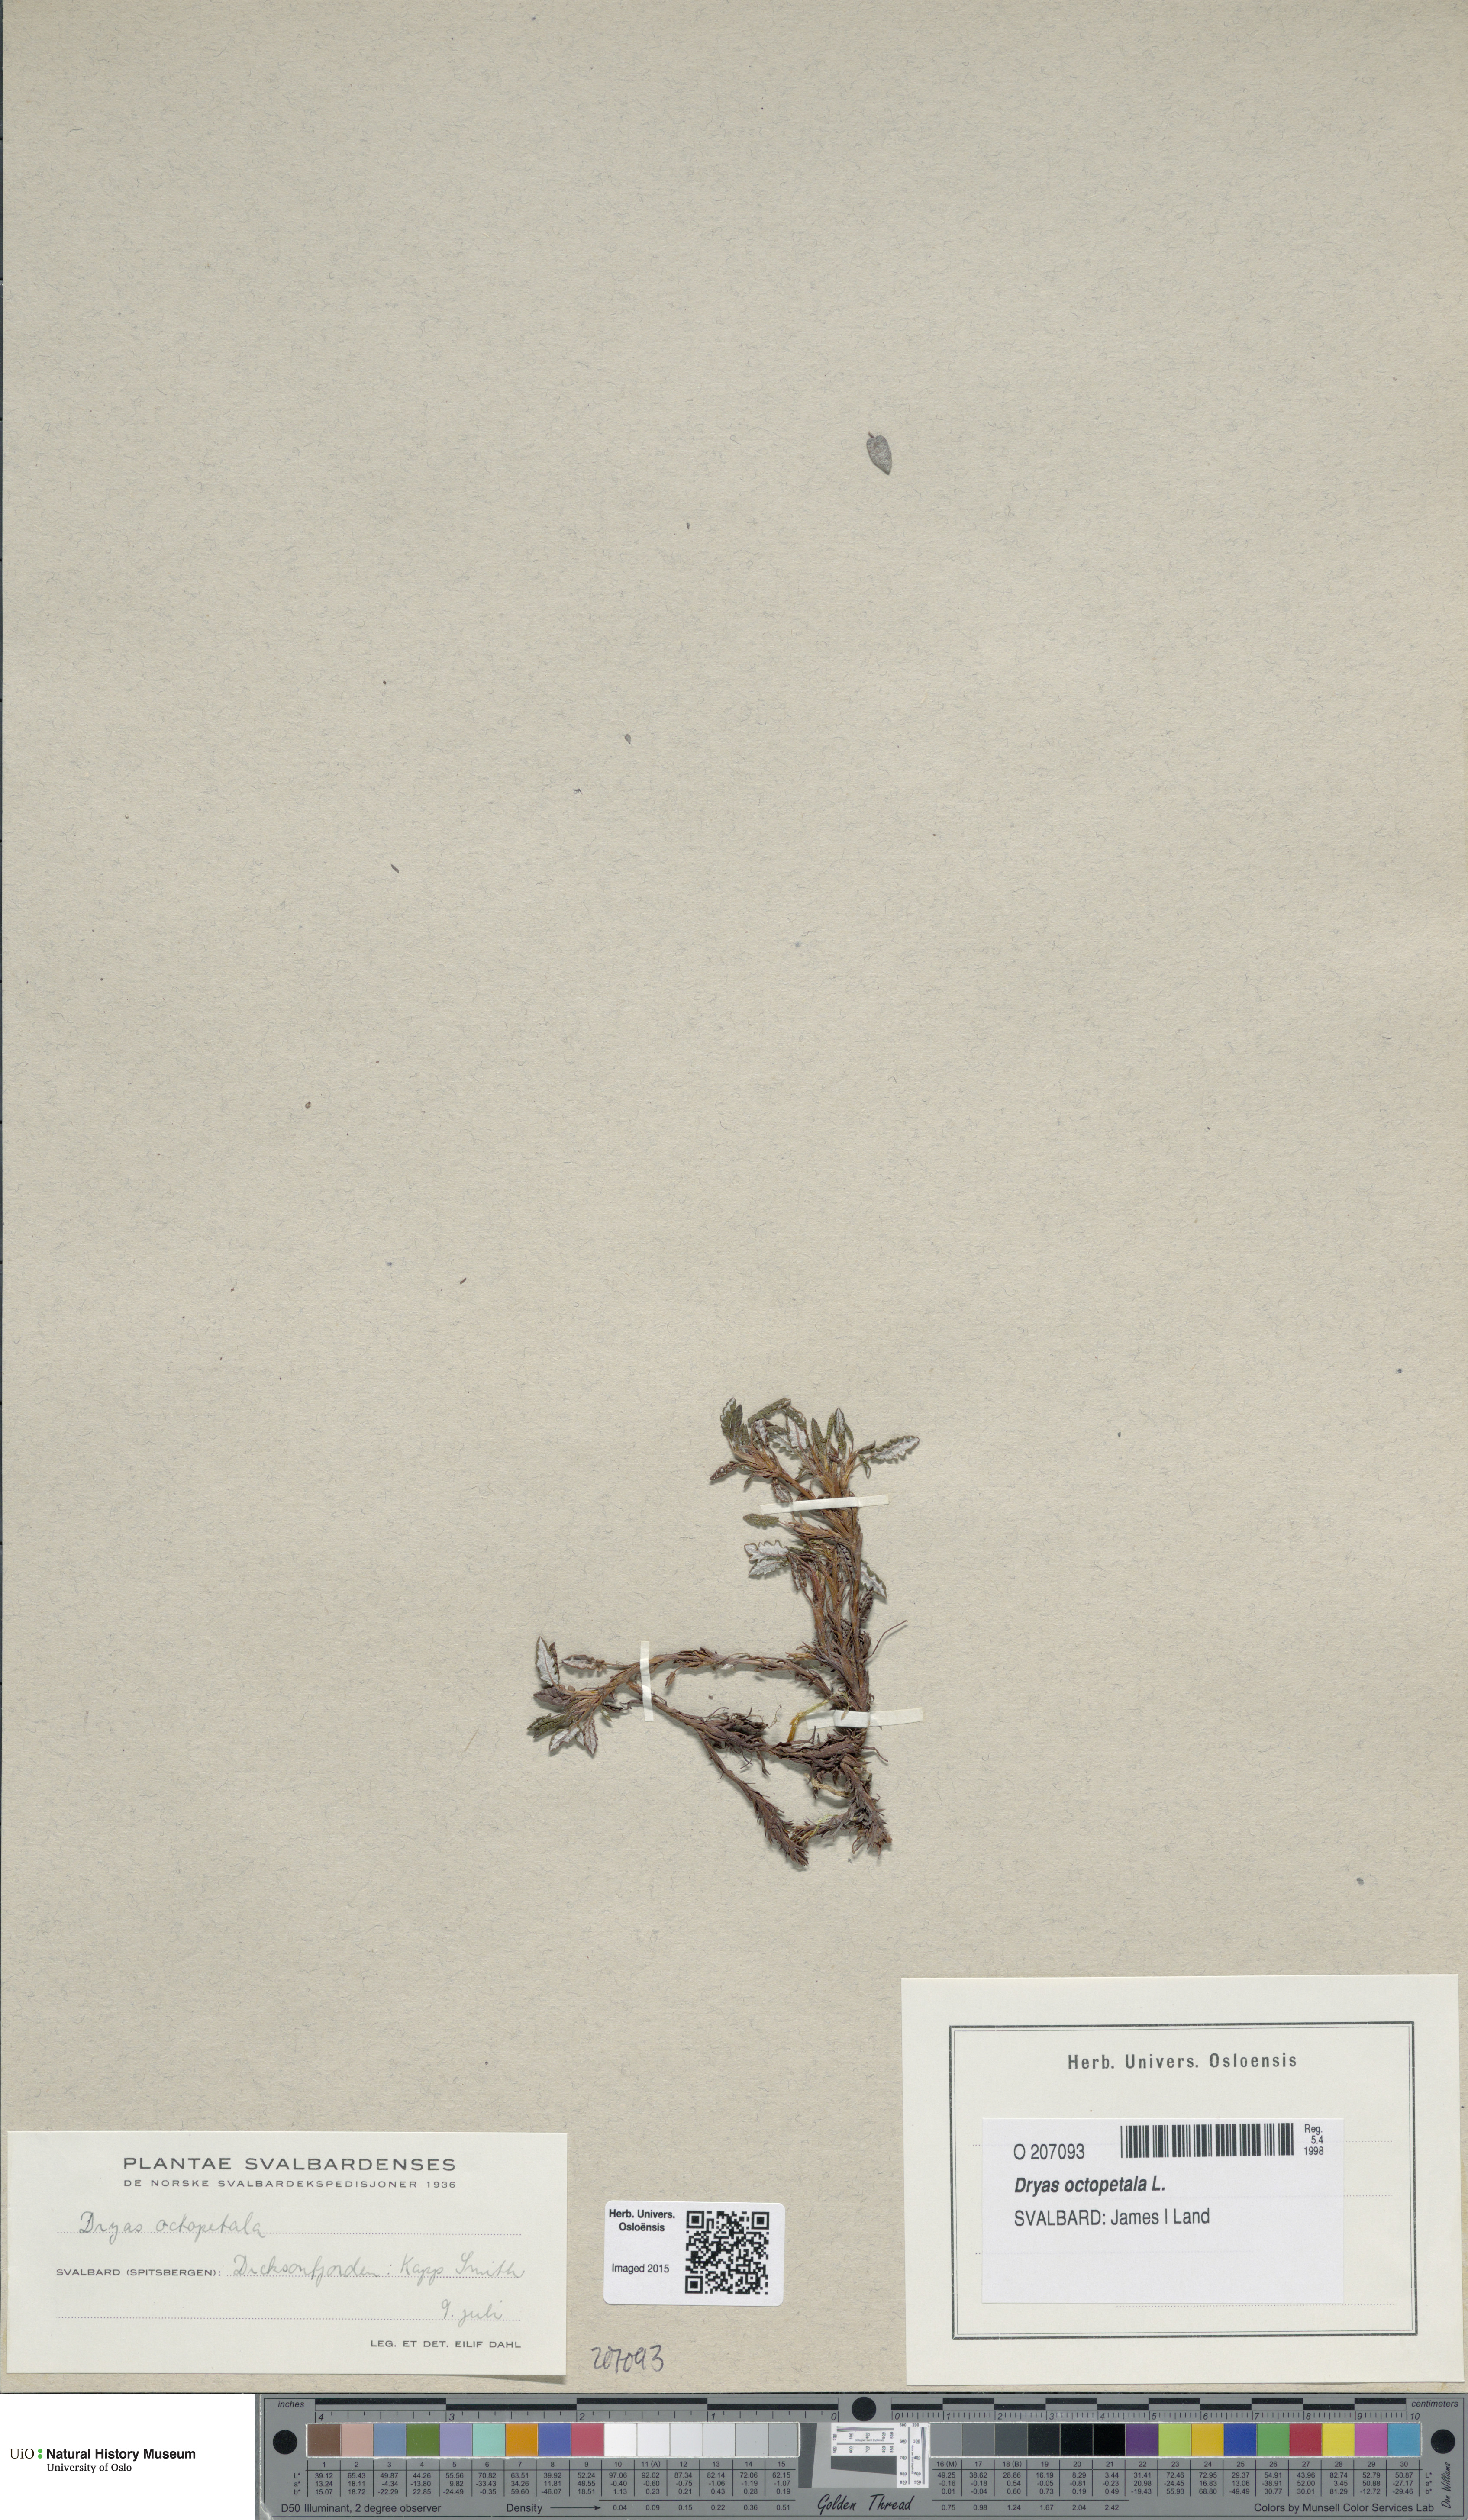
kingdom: Plantae
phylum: Tracheophyta
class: Magnoliopsida
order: Rosales
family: Rosaceae
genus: Dryas
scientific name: Dryas octopetala
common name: Eight-petal mountain-avens
